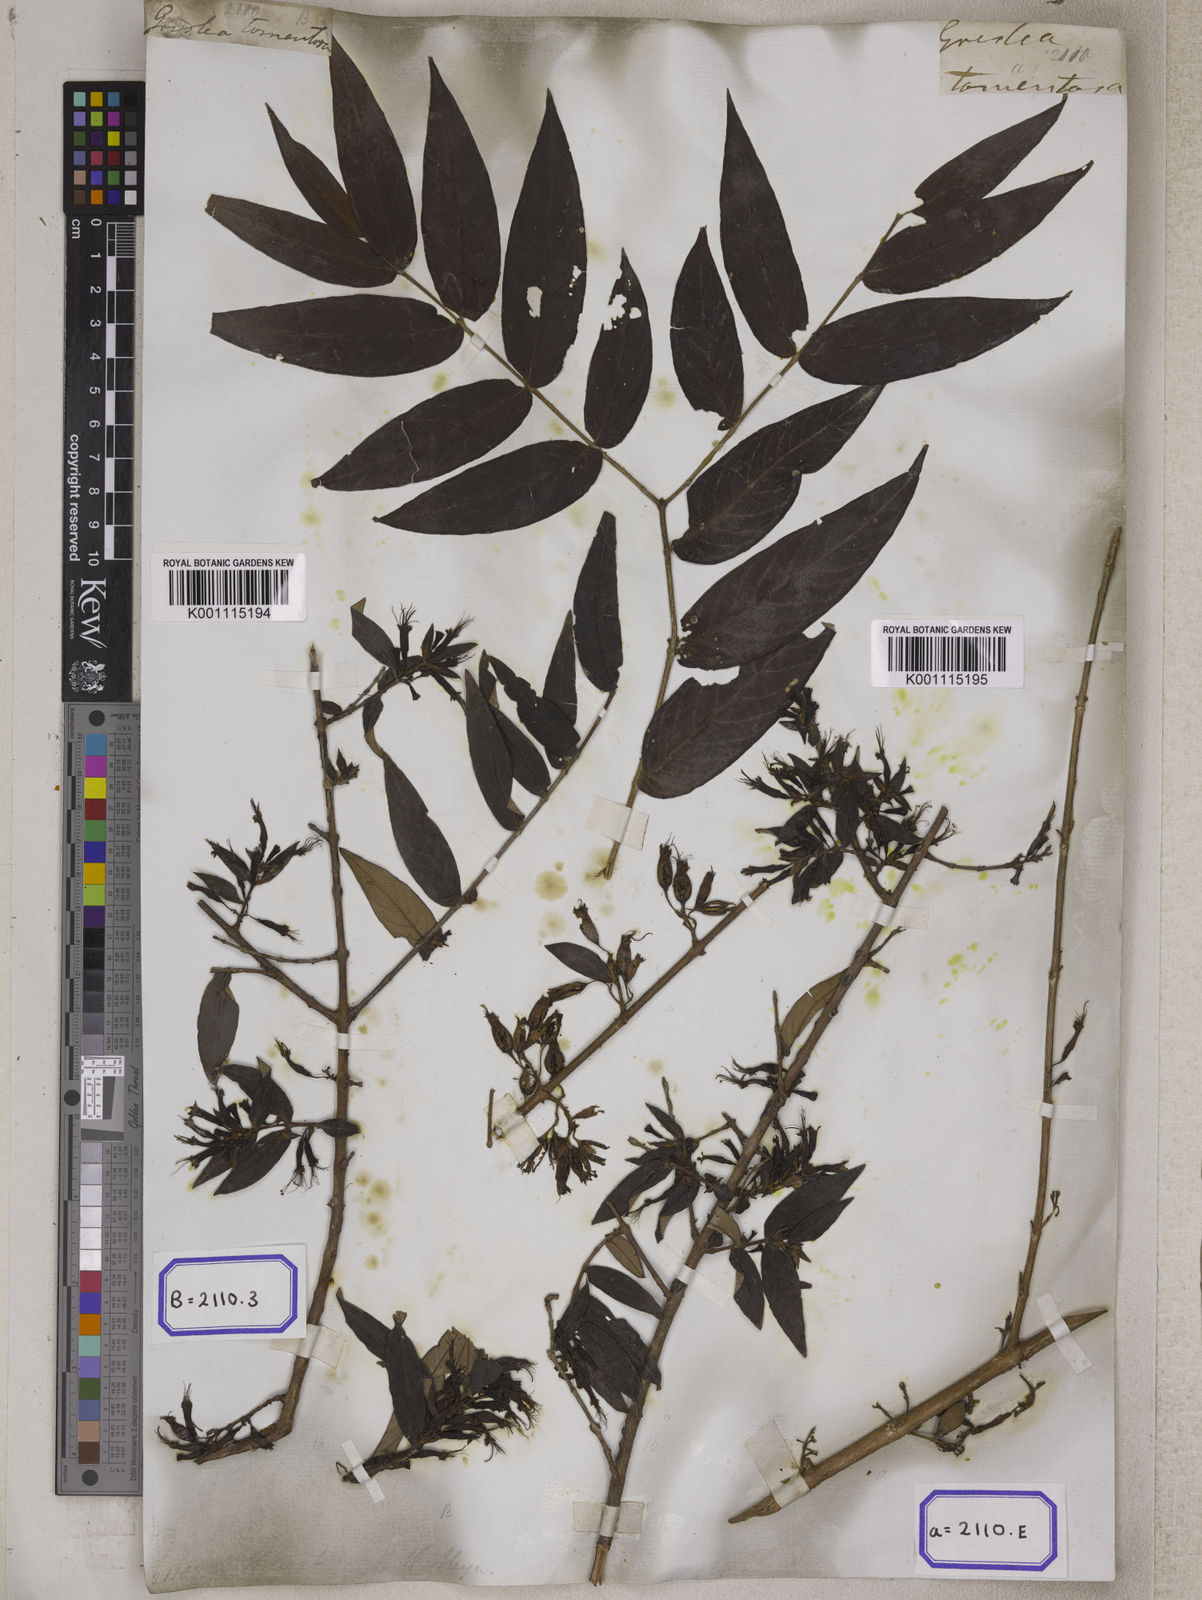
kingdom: Plantae
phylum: Tracheophyta
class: Magnoliopsida
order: Myrtales
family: Combretaceae
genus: Combretum
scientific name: Combretum
